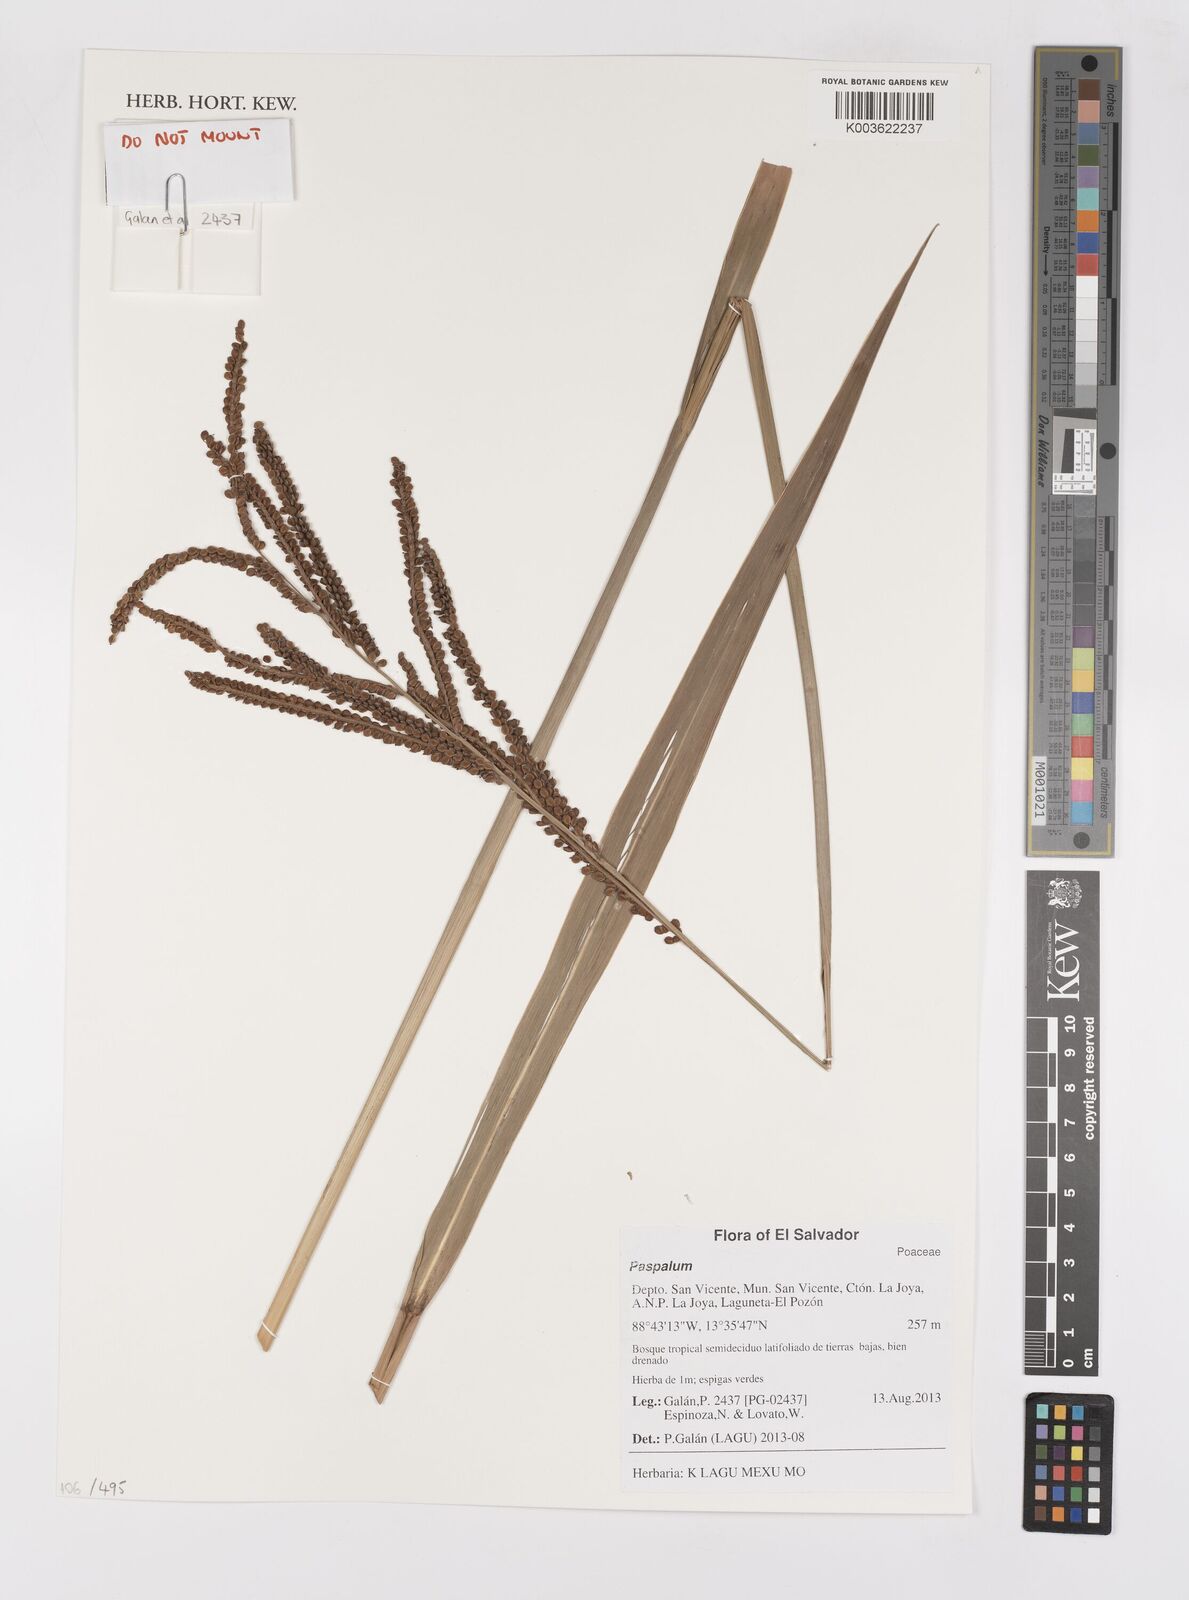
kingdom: Plantae
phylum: Tracheophyta
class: Liliopsida
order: Poales
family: Poaceae
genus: Paspalum
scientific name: Paspalum
